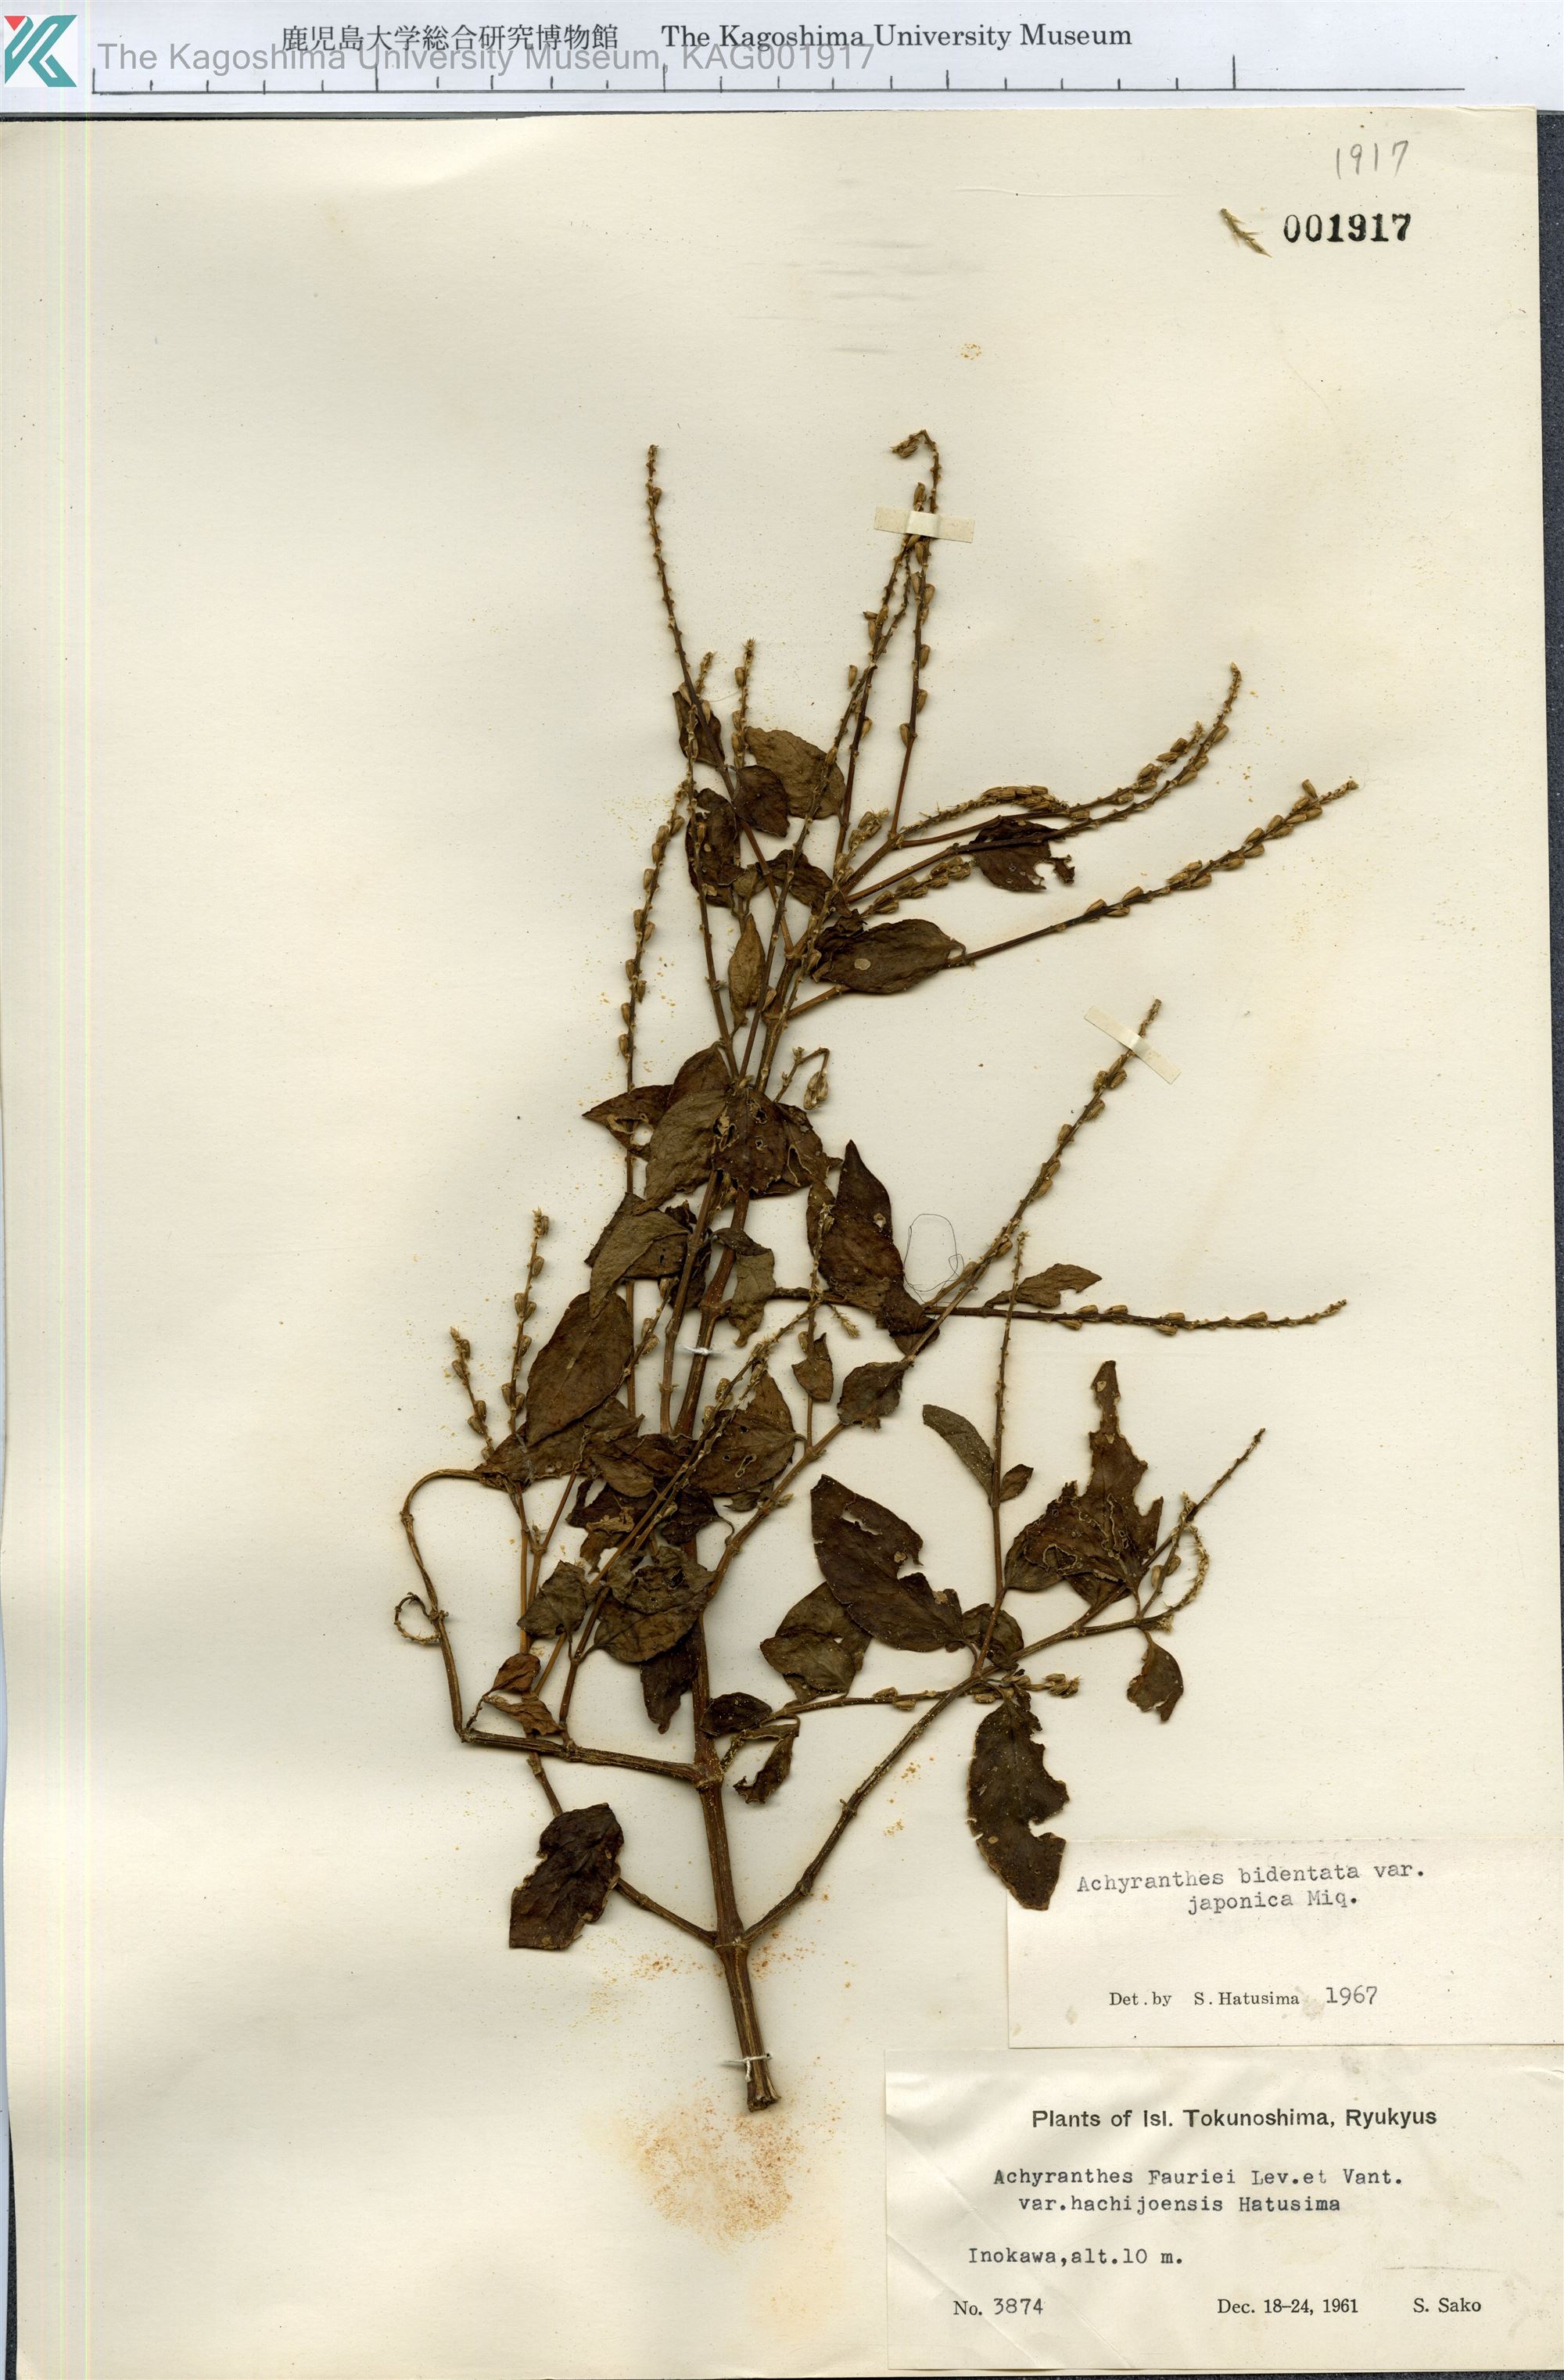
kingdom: Plantae
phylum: Tracheophyta
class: Magnoliopsida
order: Caryophyllales
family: Amaranthaceae
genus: Achyranthes
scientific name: Achyranthes bidentata
